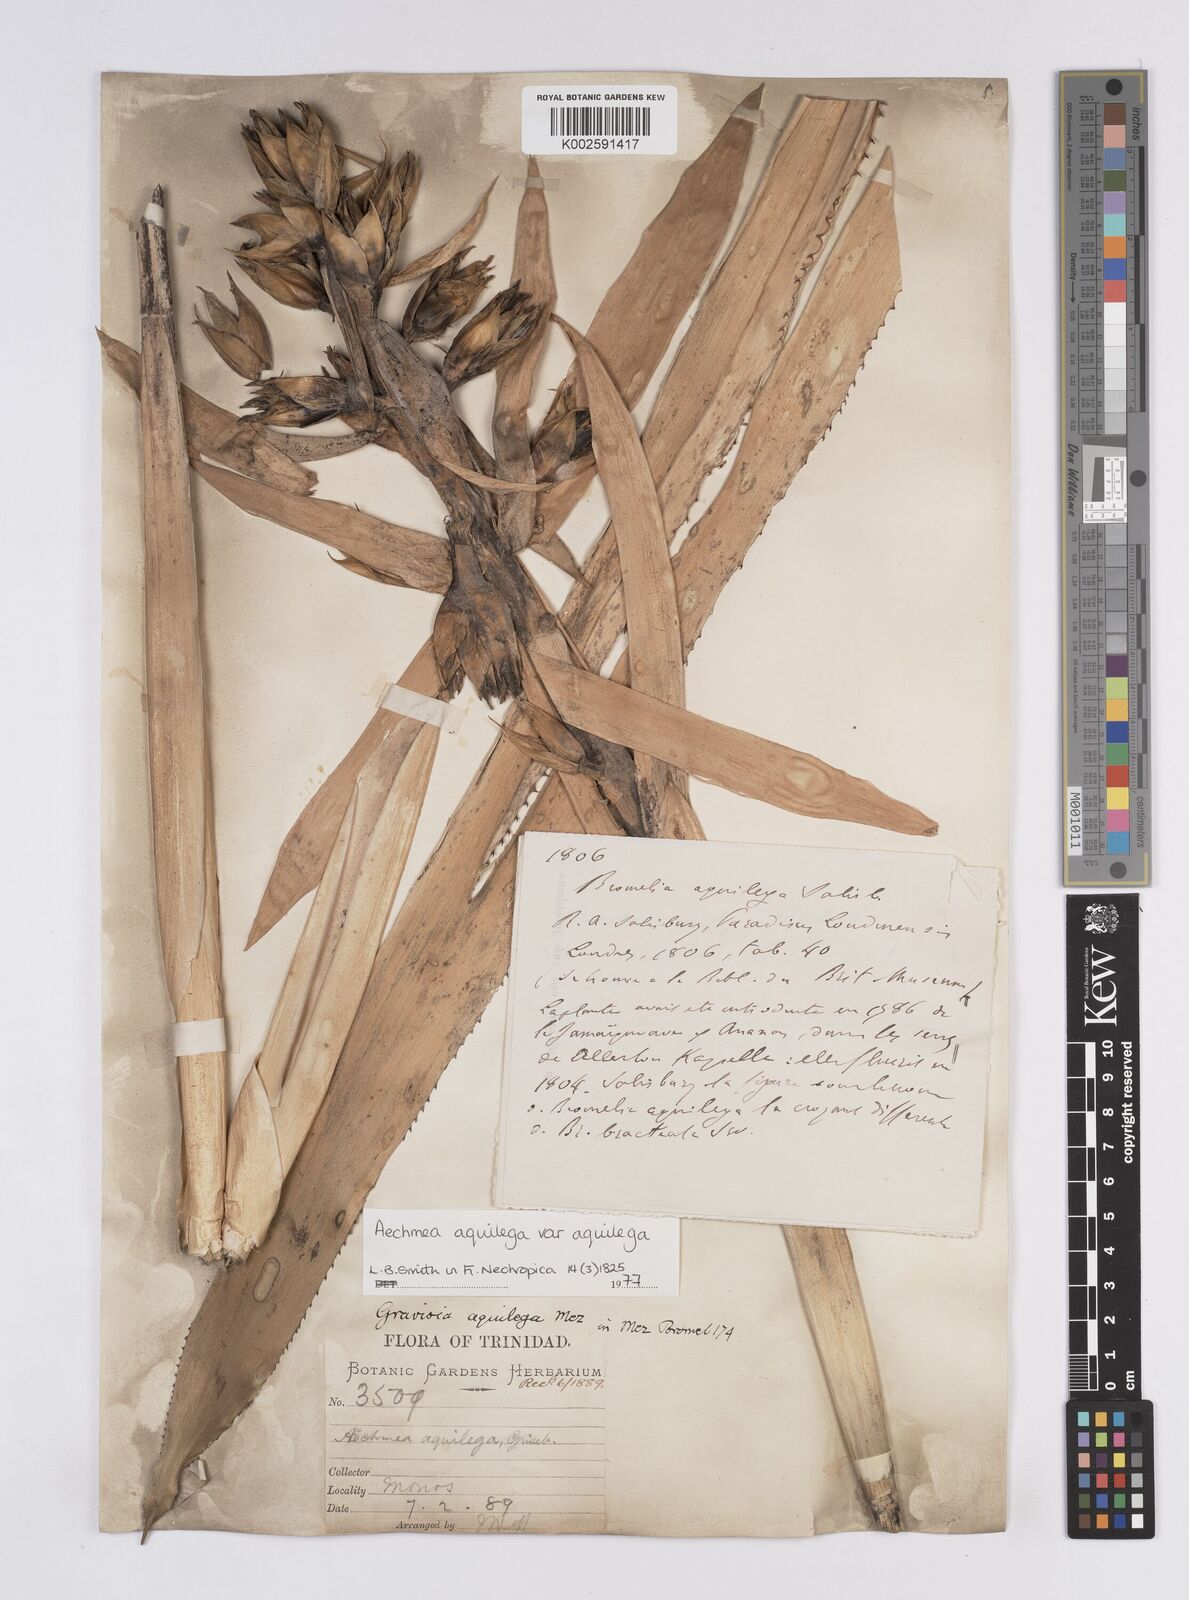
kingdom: Plantae
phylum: Tracheophyta
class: Liliopsida
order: Poales
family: Bromeliaceae
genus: Aechmea
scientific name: Aechmea aquilega
